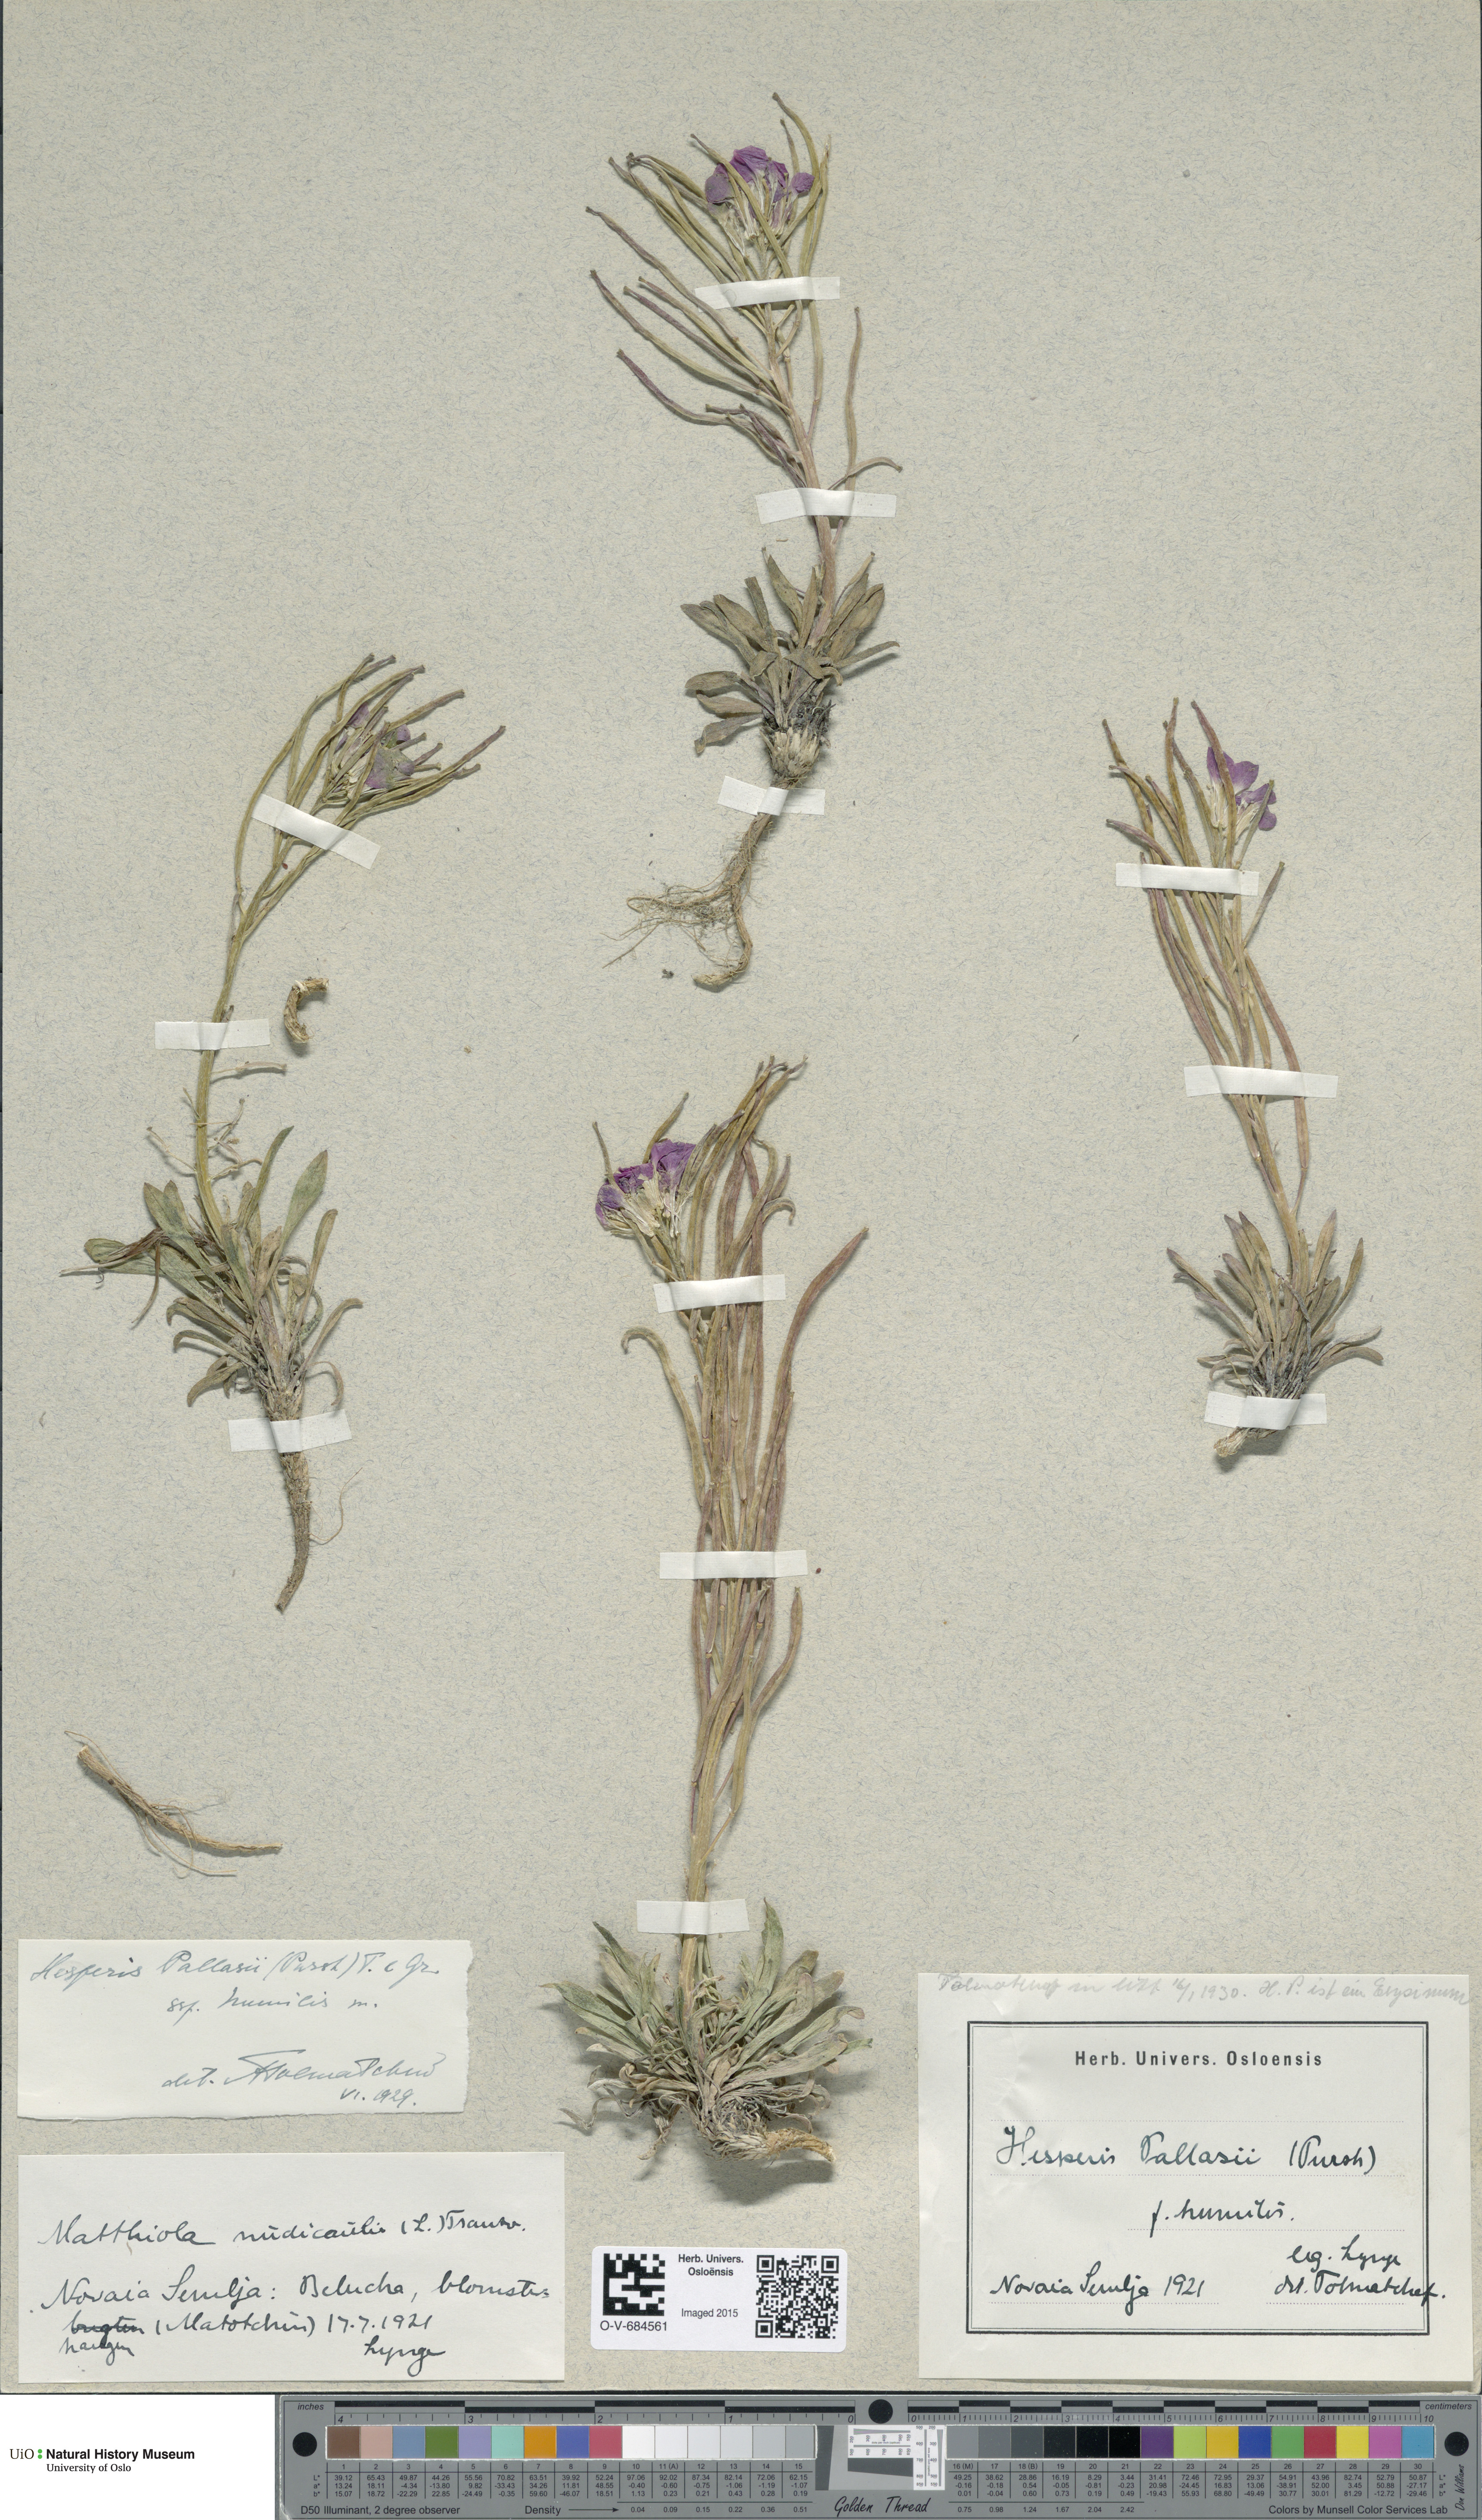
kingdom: Plantae
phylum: Tracheophyta
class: Magnoliopsida
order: Brassicales
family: Brassicaceae
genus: Erysimum
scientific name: Erysimum redowskii
